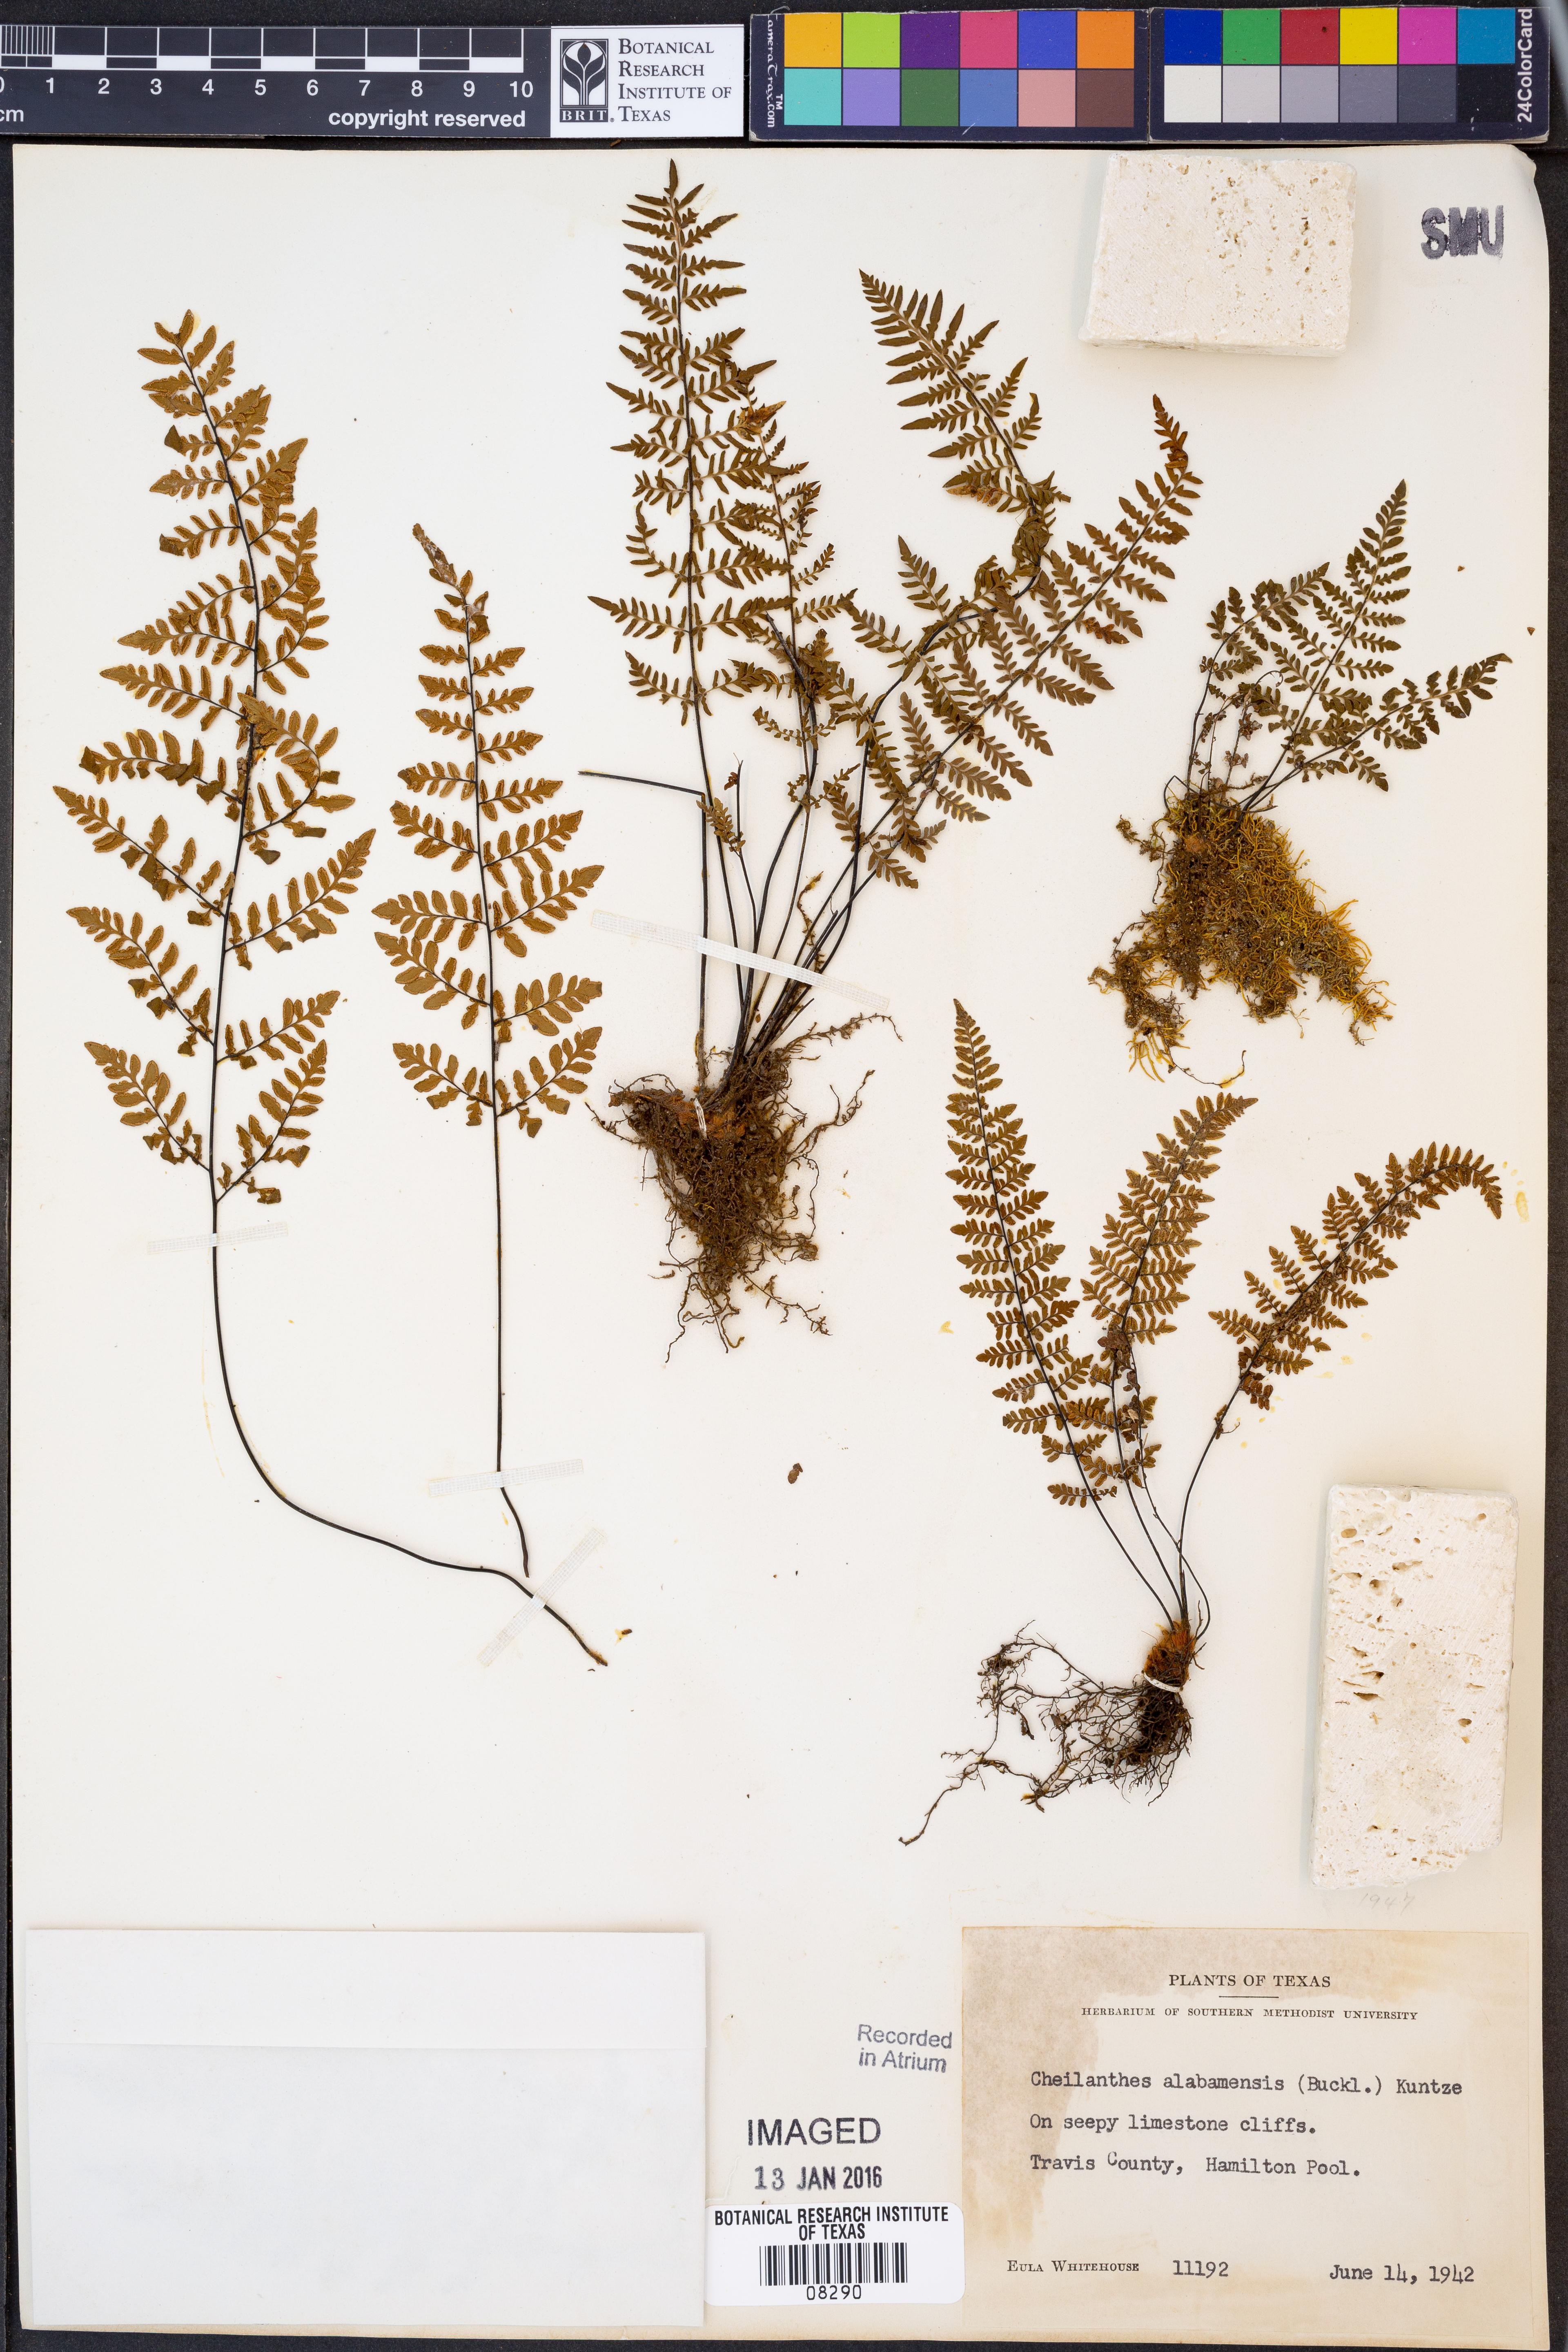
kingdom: Plantae
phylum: Tracheophyta
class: Polypodiopsida
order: Polypodiales
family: Pteridaceae
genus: Myriopteris
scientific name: Myriopteris alabamensis
